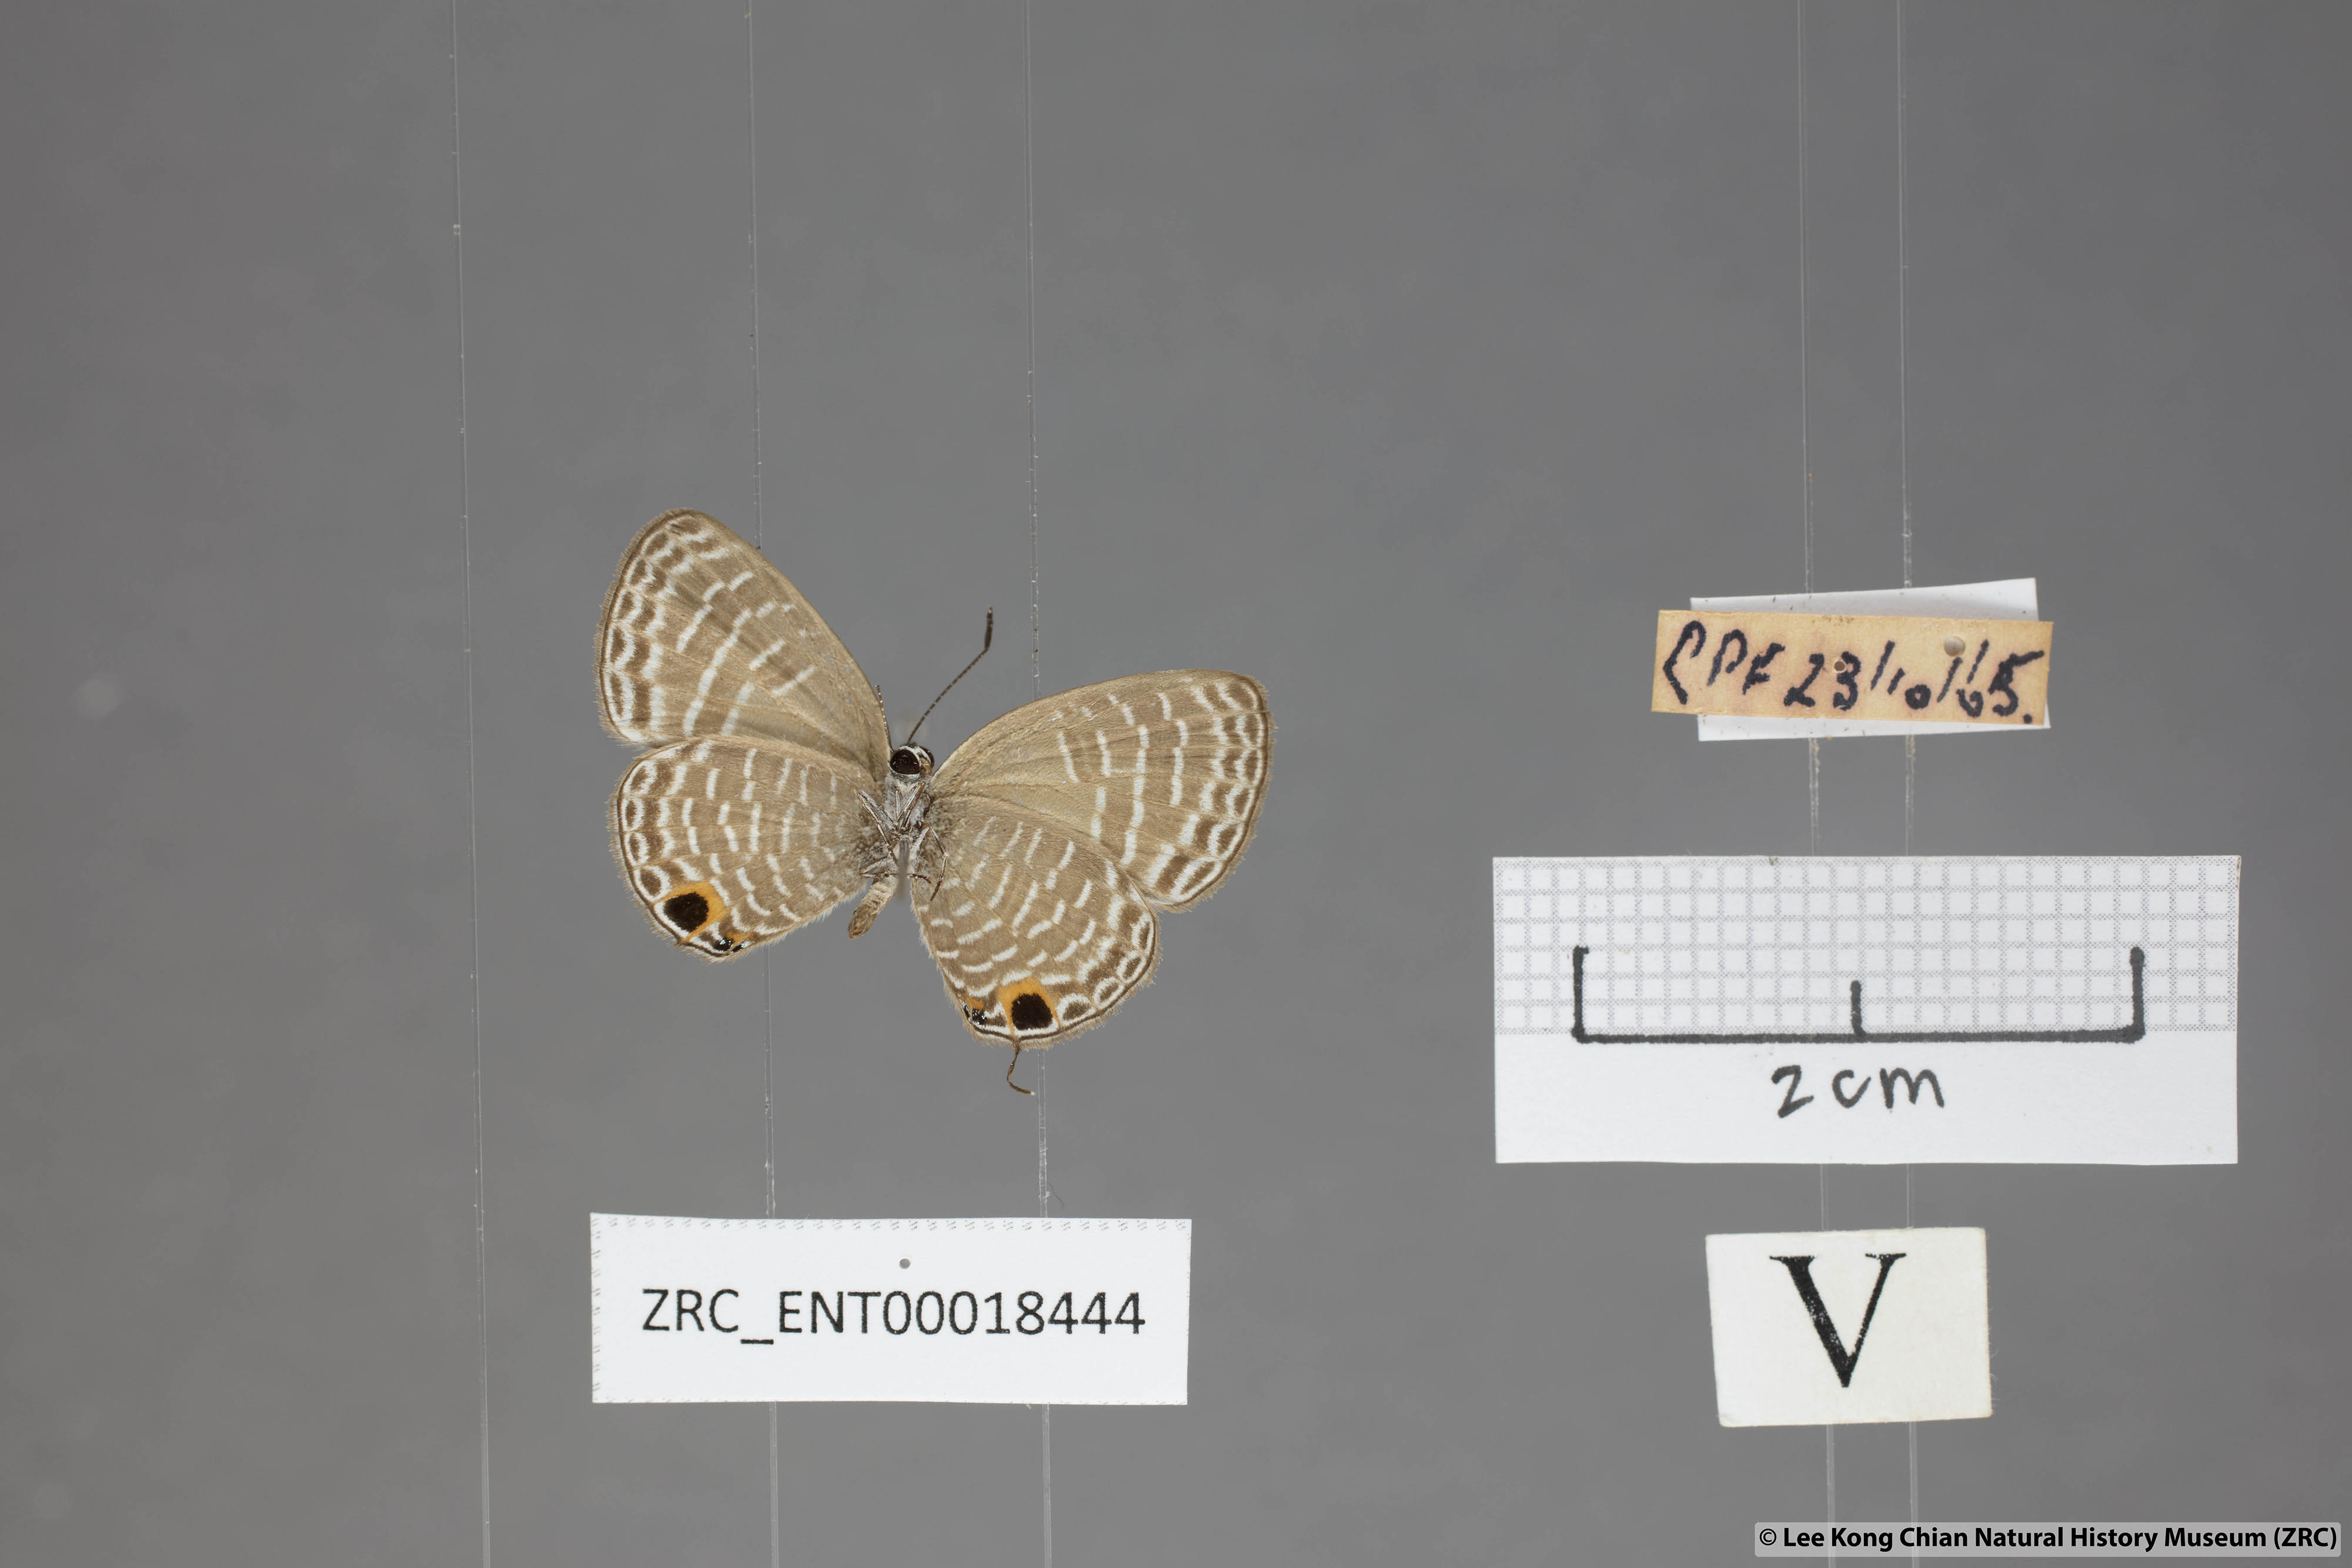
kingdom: Animalia
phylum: Arthropoda
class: Insecta
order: Lepidoptera
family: Lycaenidae
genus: Nacaduba
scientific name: Nacaduba sanaya
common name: Jewel fourline blue
